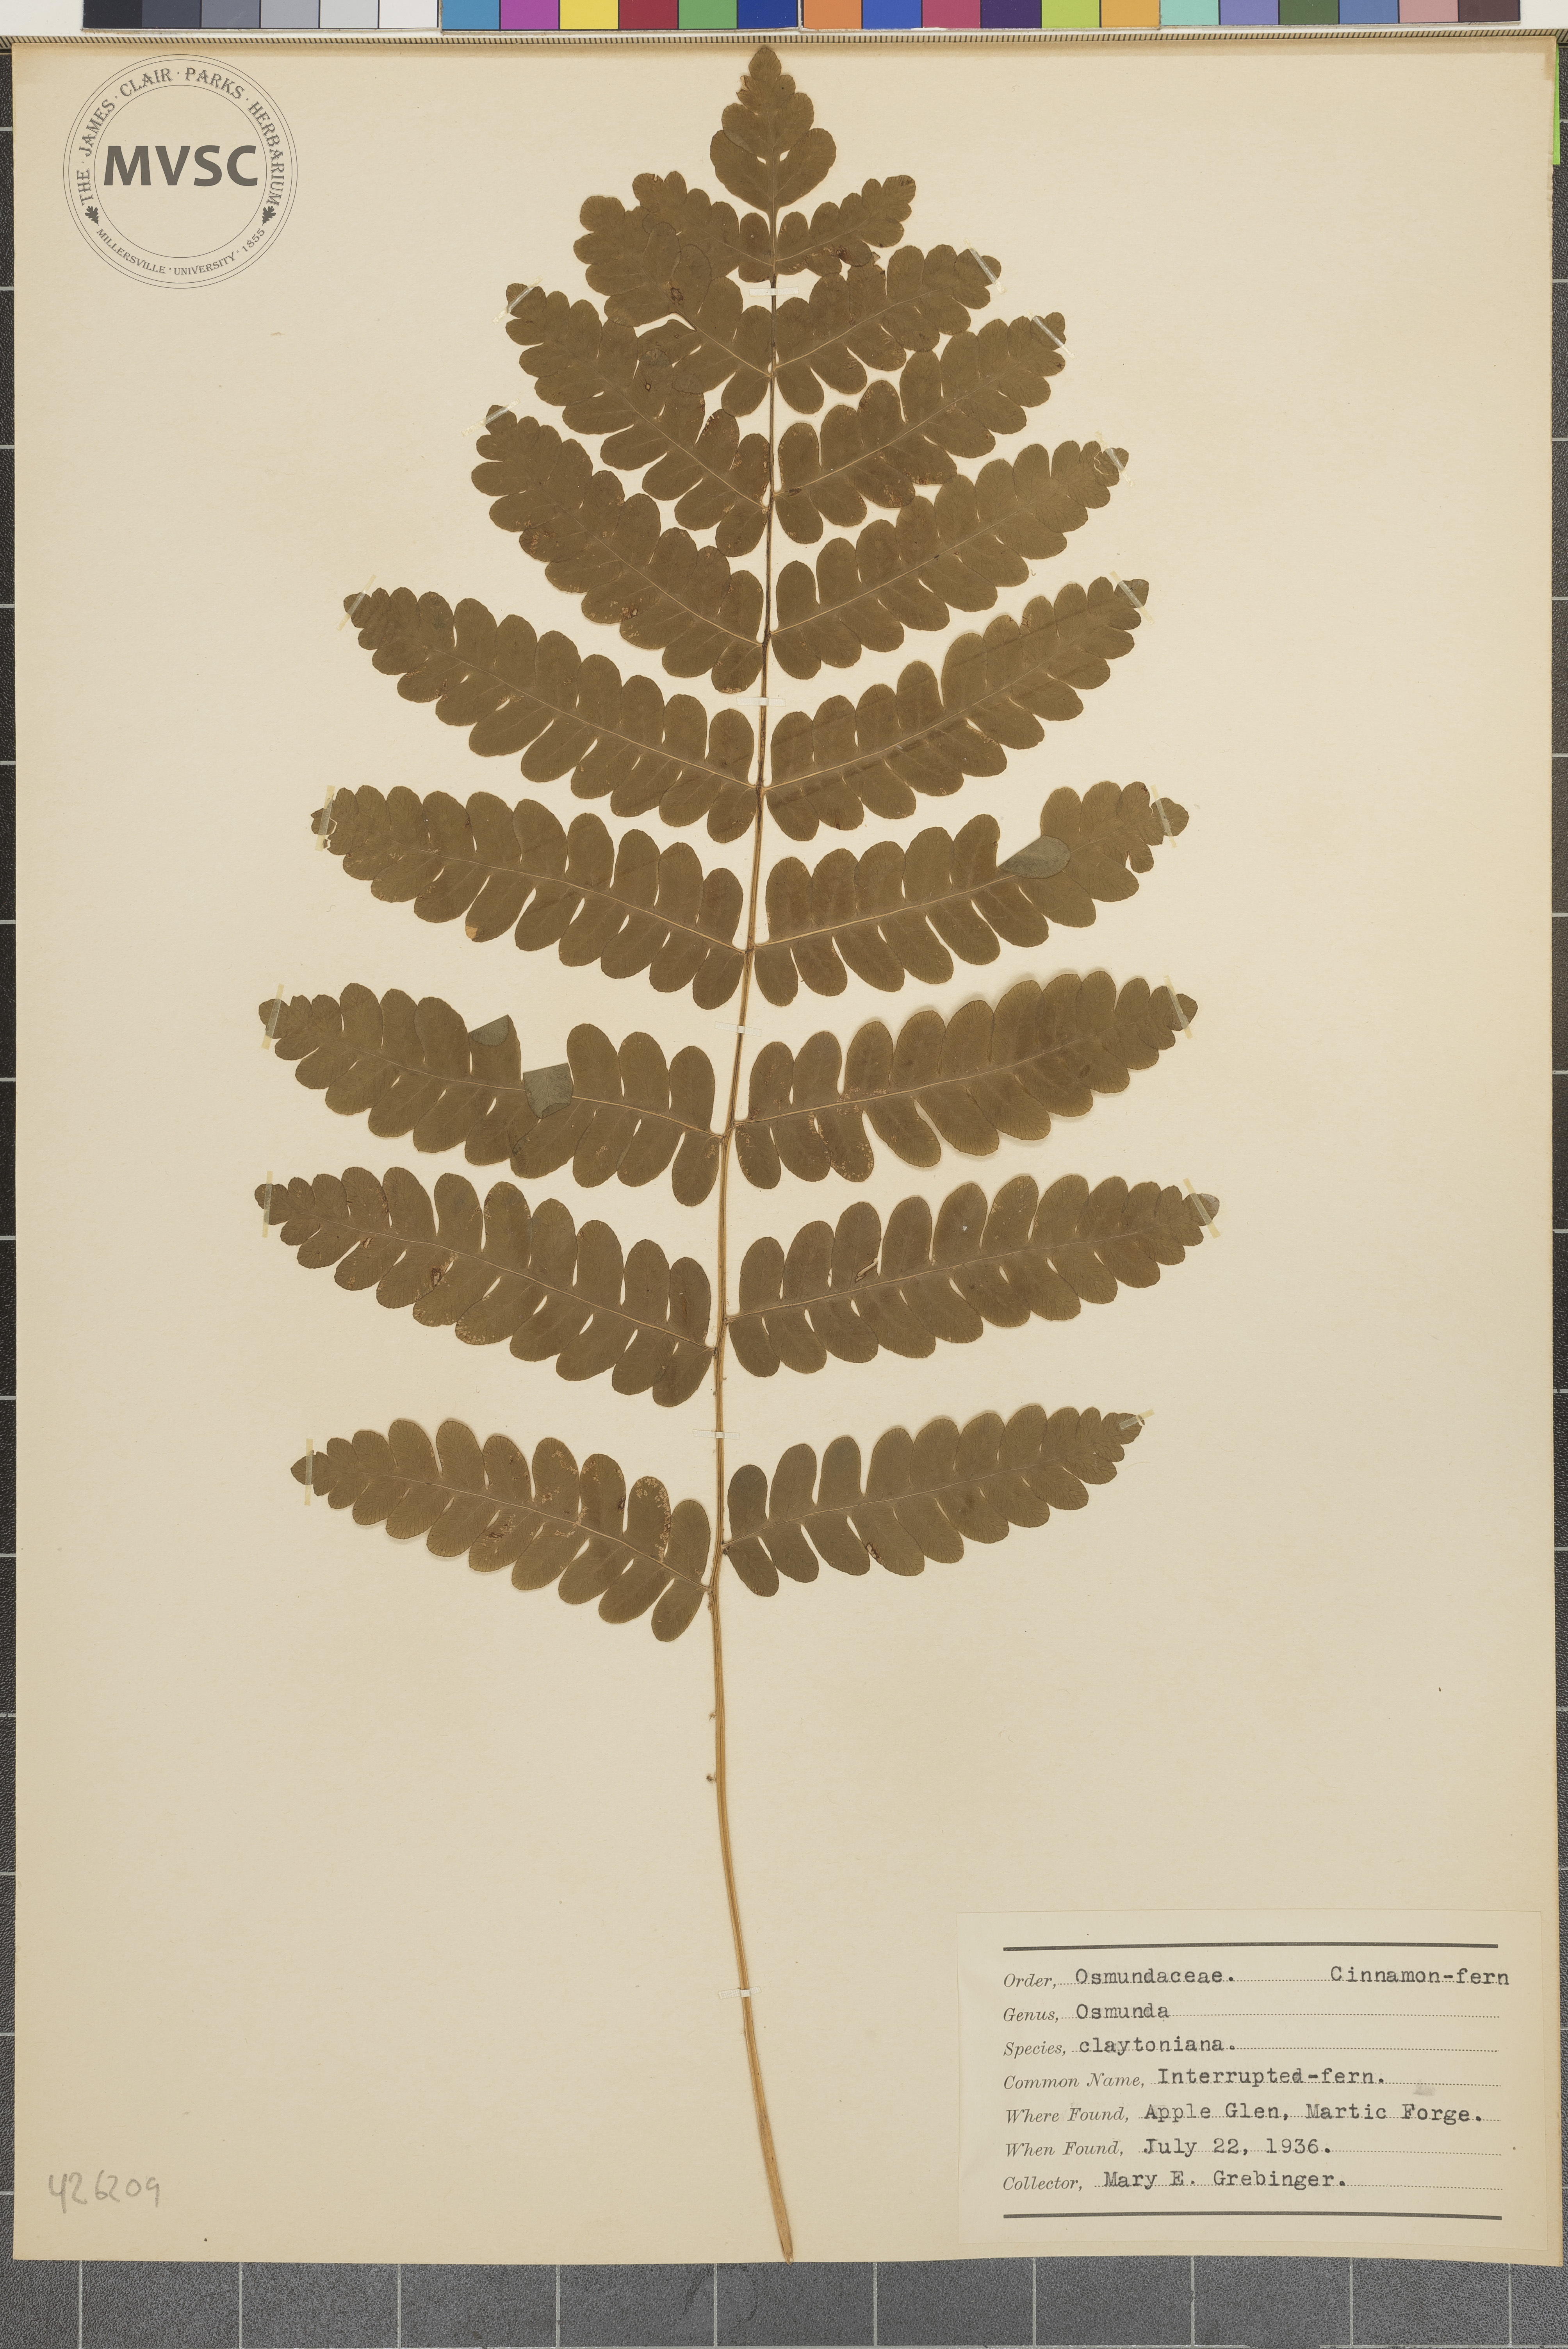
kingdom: Plantae
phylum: Tracheophyta
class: Polypodiopsida
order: Osmundales
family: Osmundaceae
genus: Claytosmunda
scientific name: Claytosmunda claytoniana
